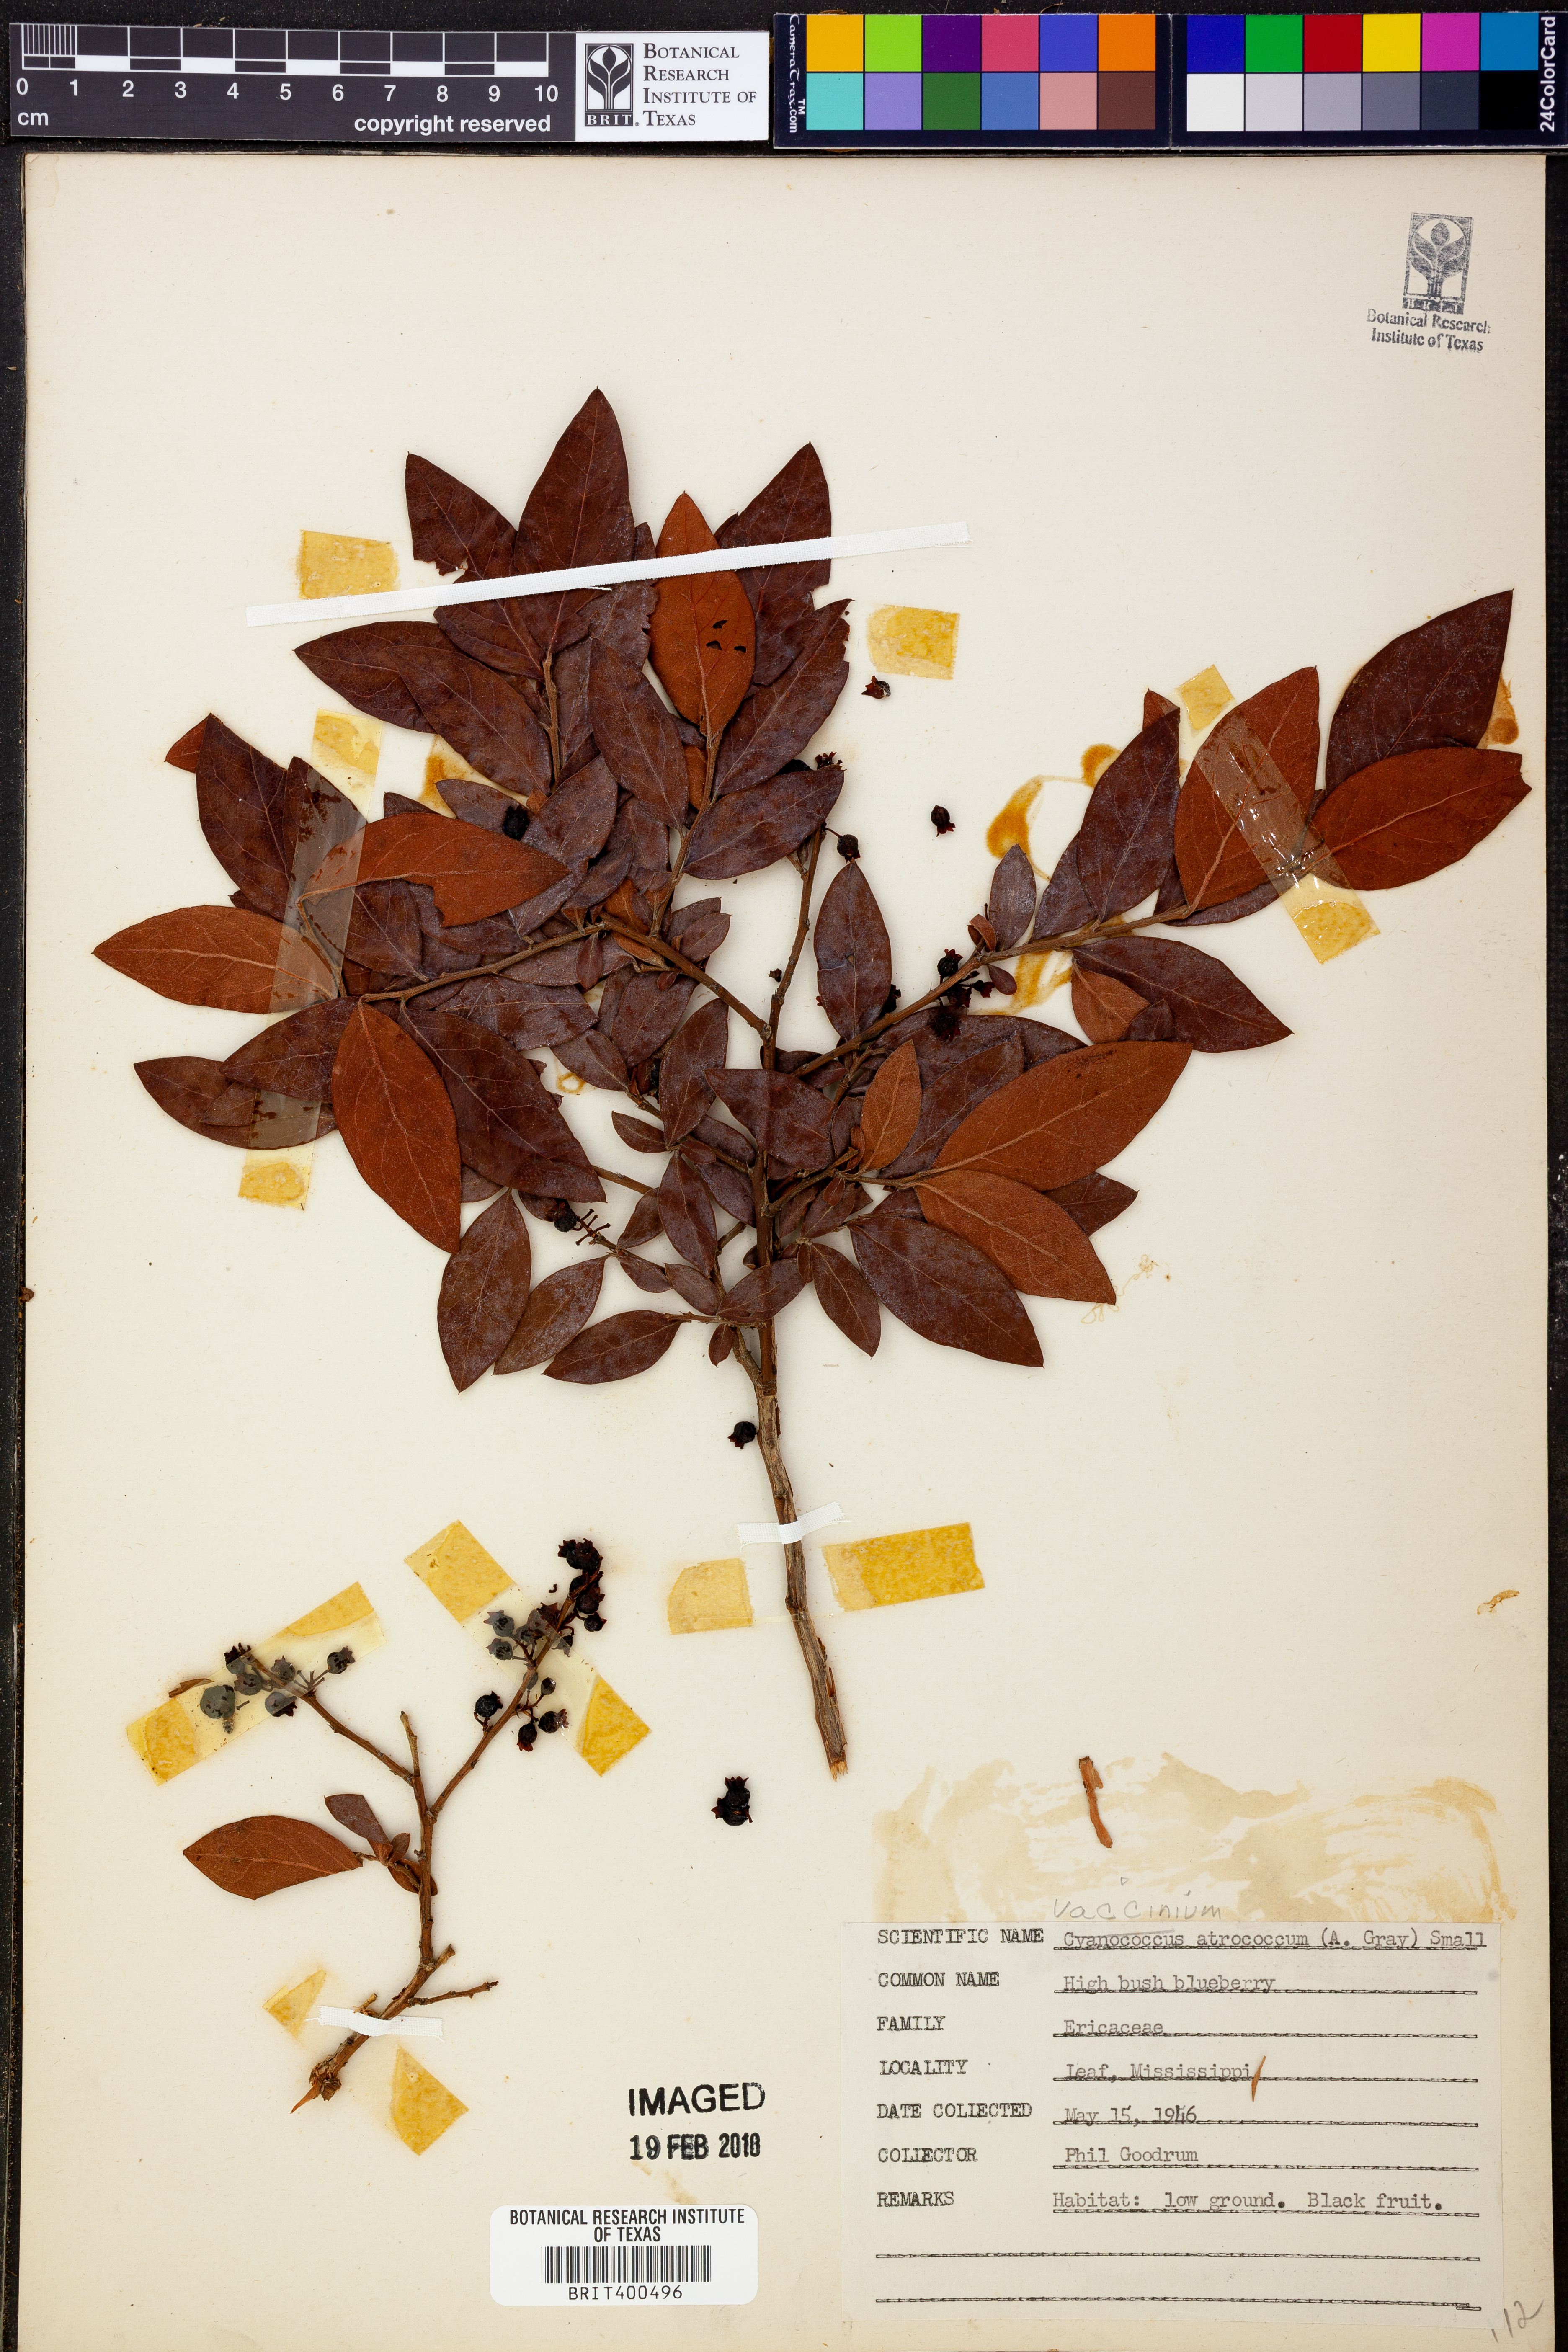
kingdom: Plantae
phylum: Tracheophyta
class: Magnoliopsida
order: Ericales
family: Ericaceae
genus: Vaccinium
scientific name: Vaccinium corymbosum
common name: Blueberry
